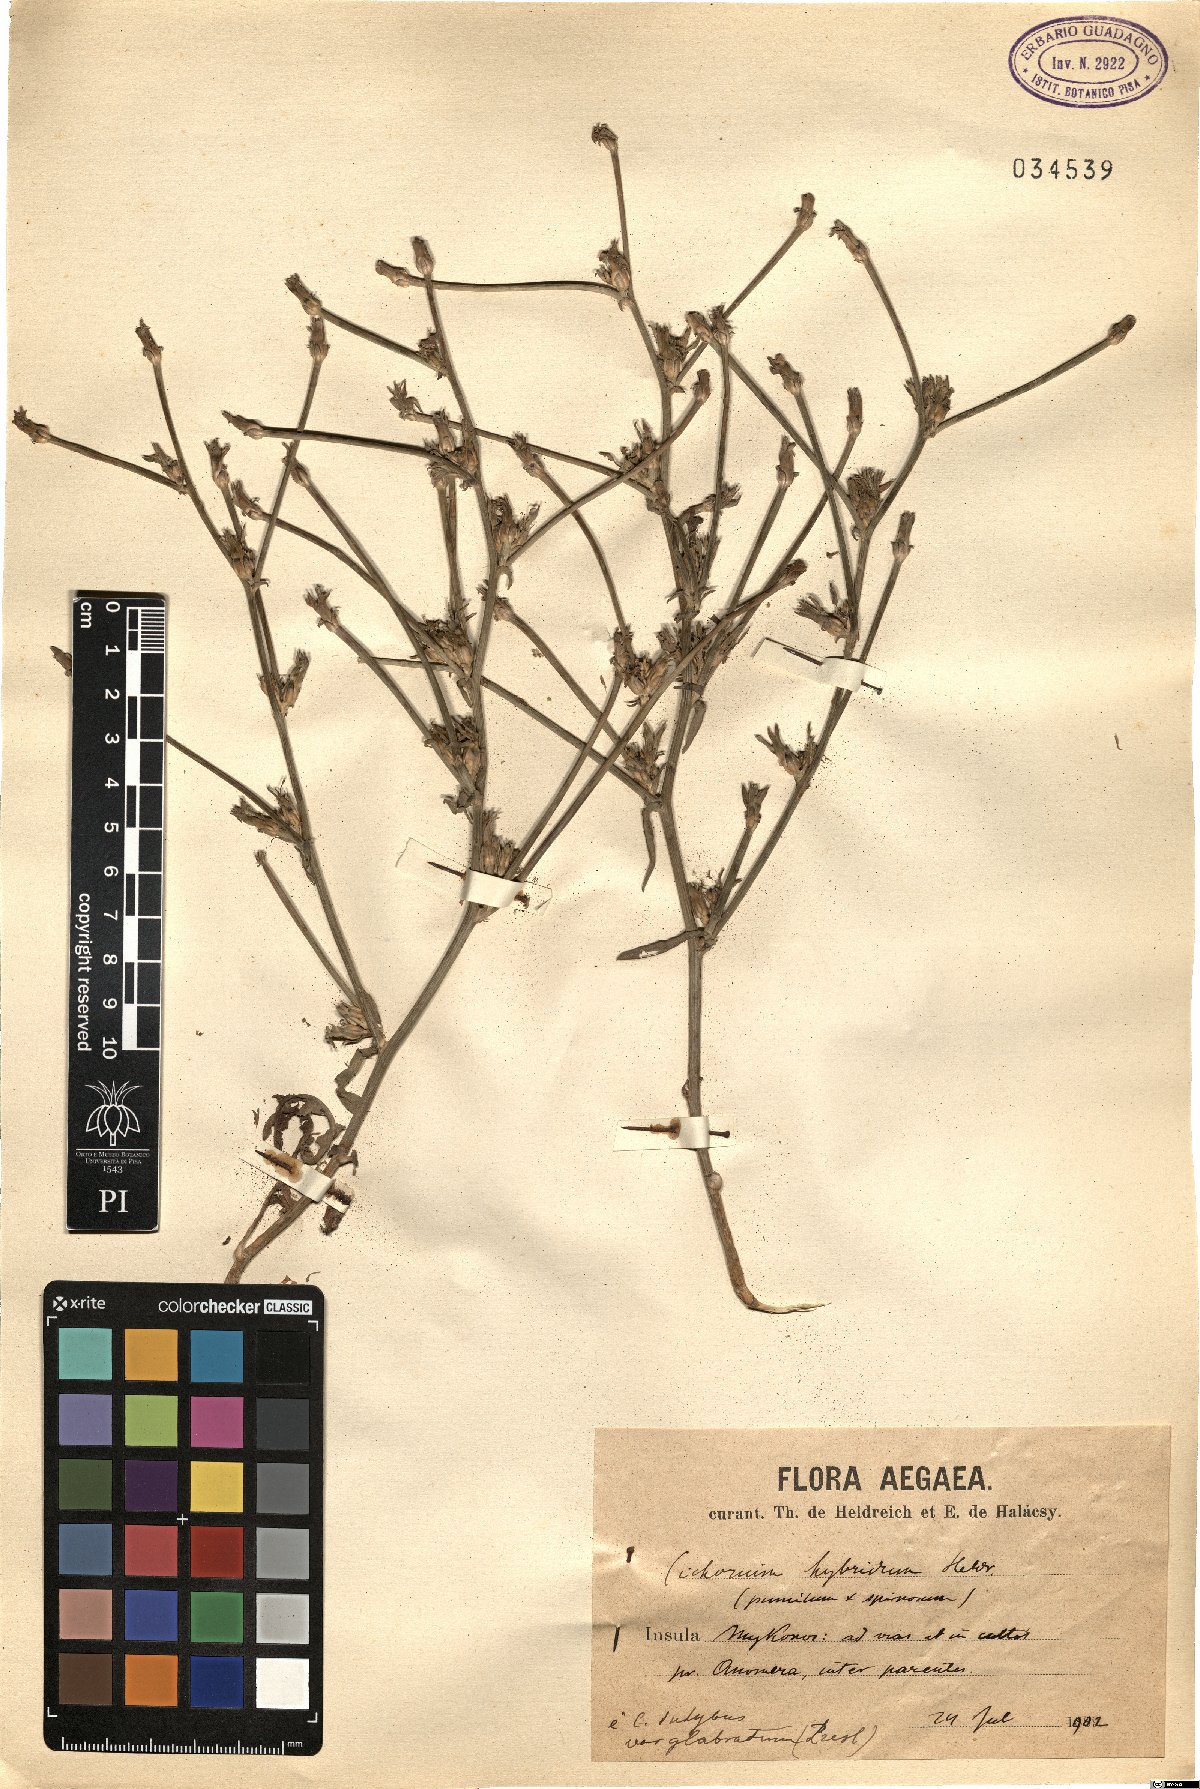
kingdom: Plantae
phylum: Tracheophyta
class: Magnoliopsida
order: Asterales
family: Asteraceae
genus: Cichorium
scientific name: Cichorium intybus
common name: Chicory
